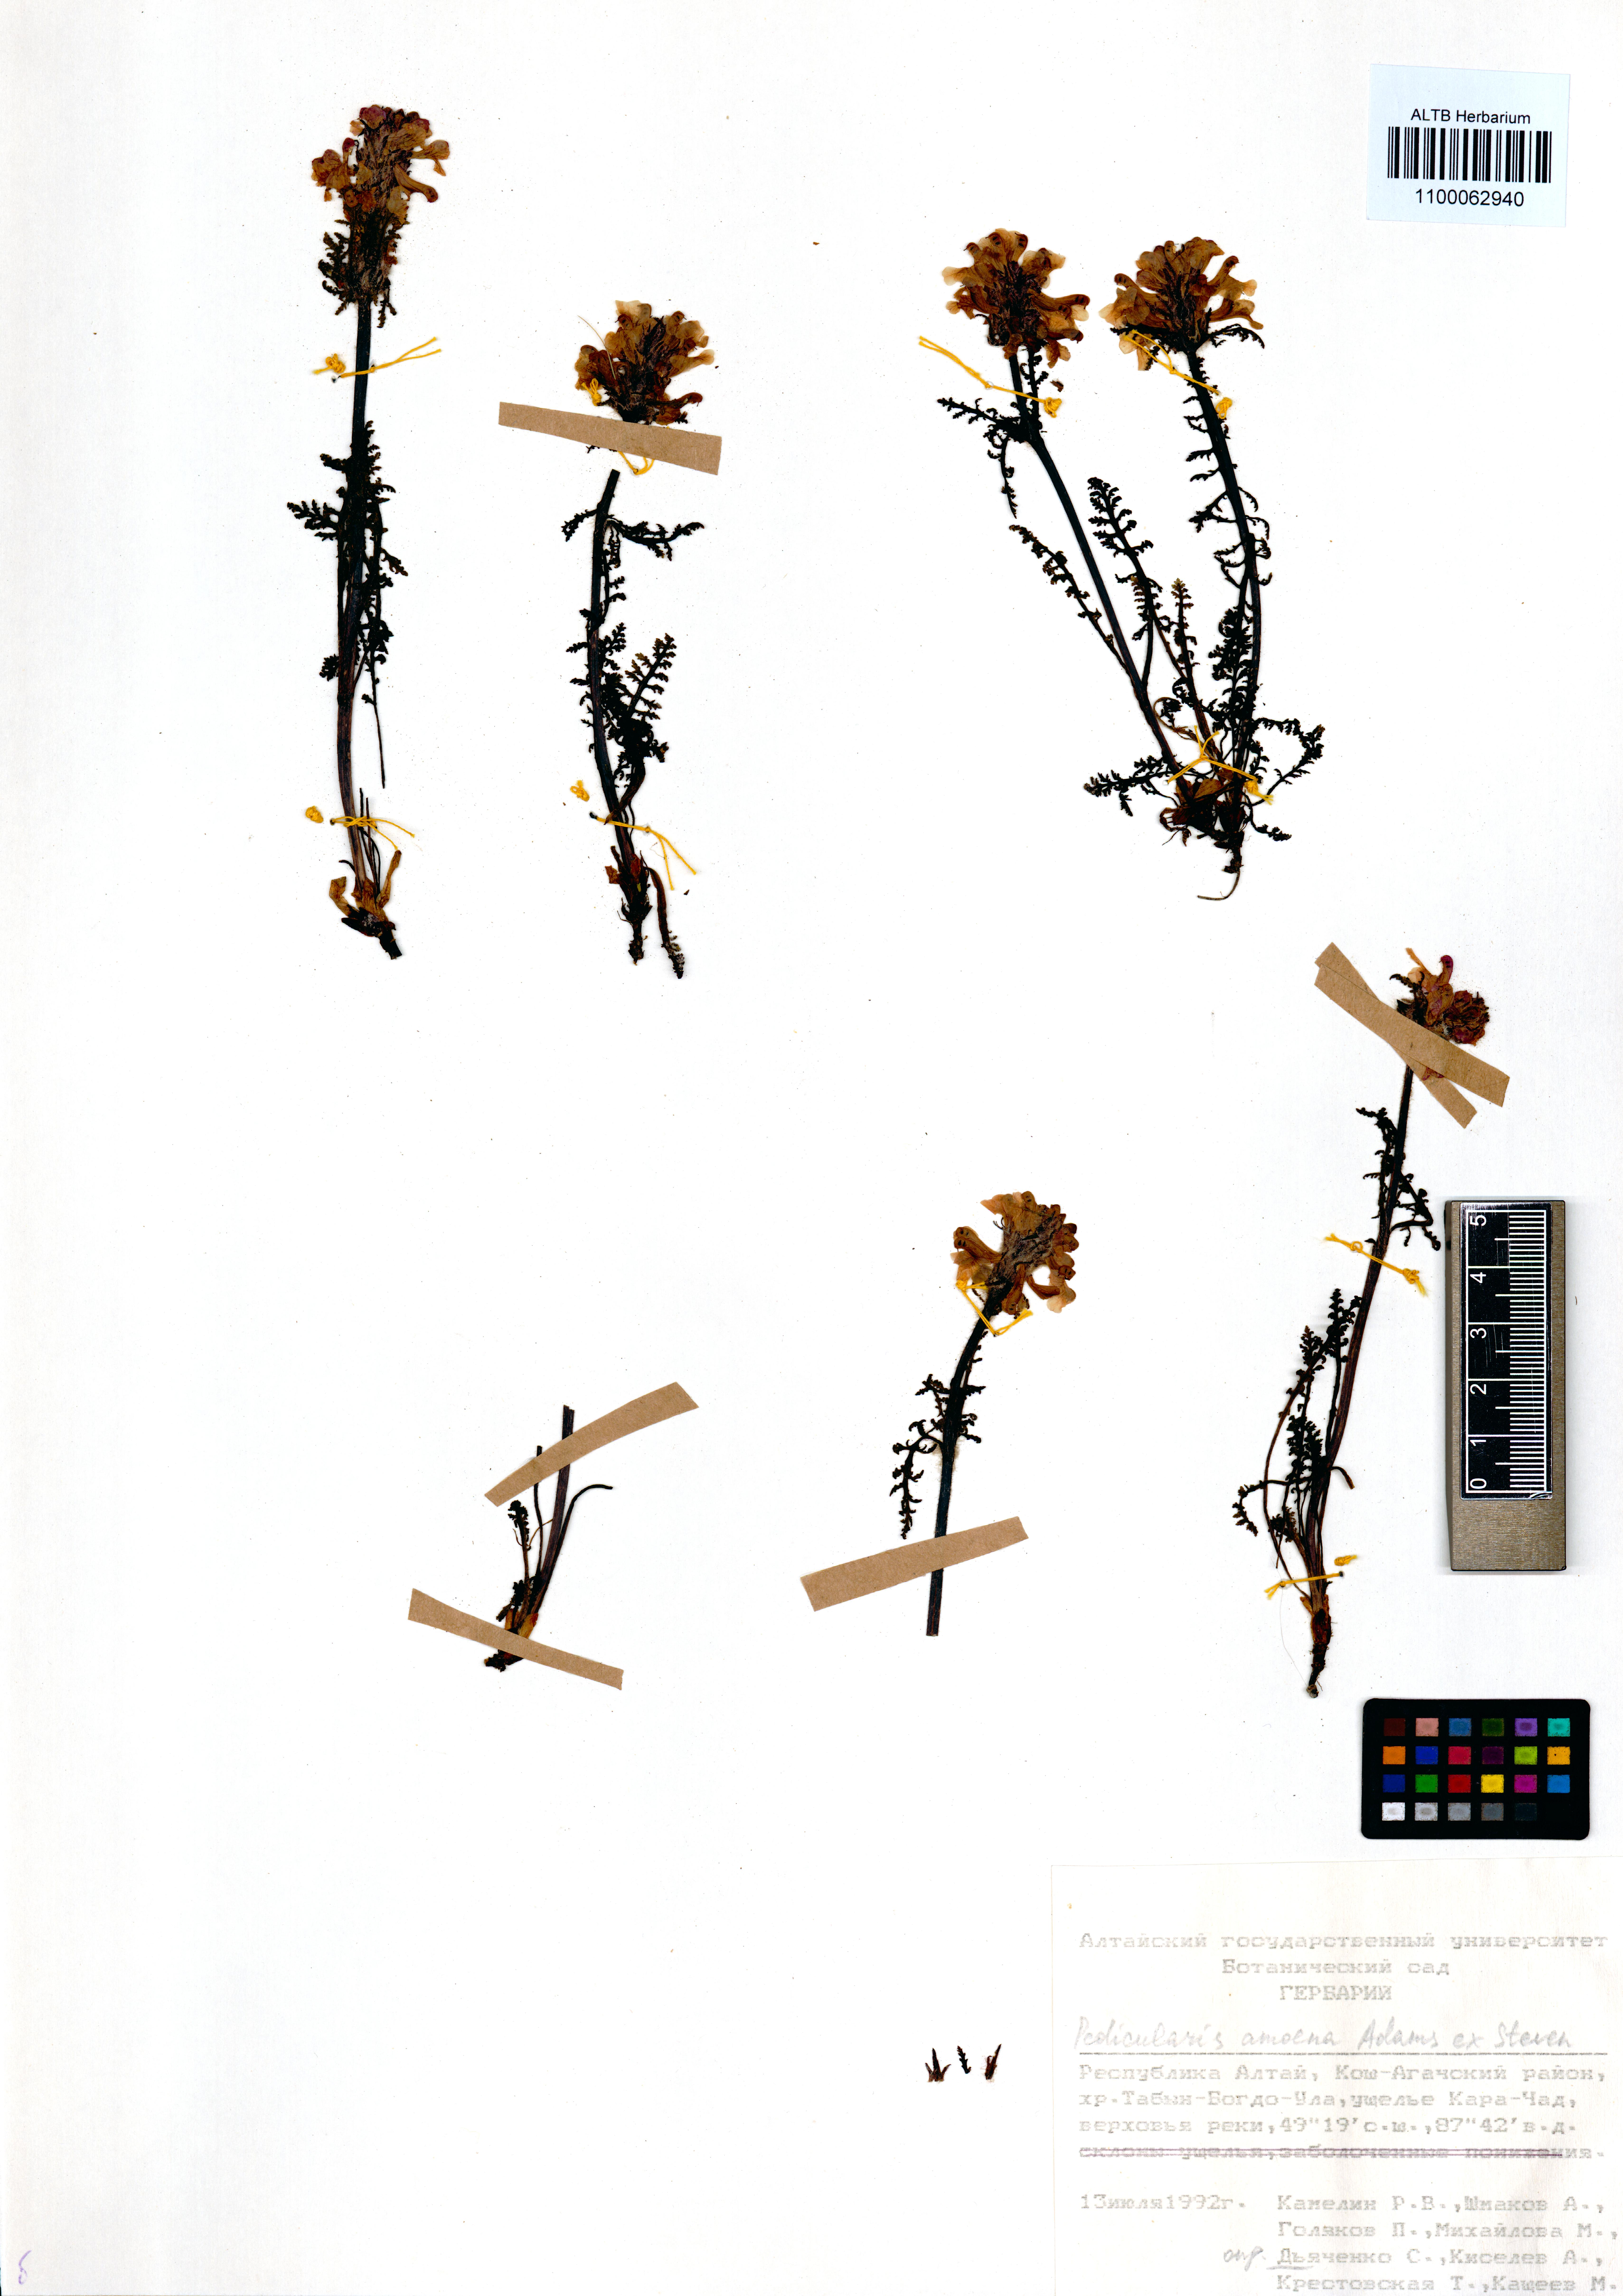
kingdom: Plantae
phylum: Tracheophyta
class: Magnoliopsida
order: Lamiales
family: Orobanchaceae
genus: Pedicularis
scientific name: Pedicularis amoena
